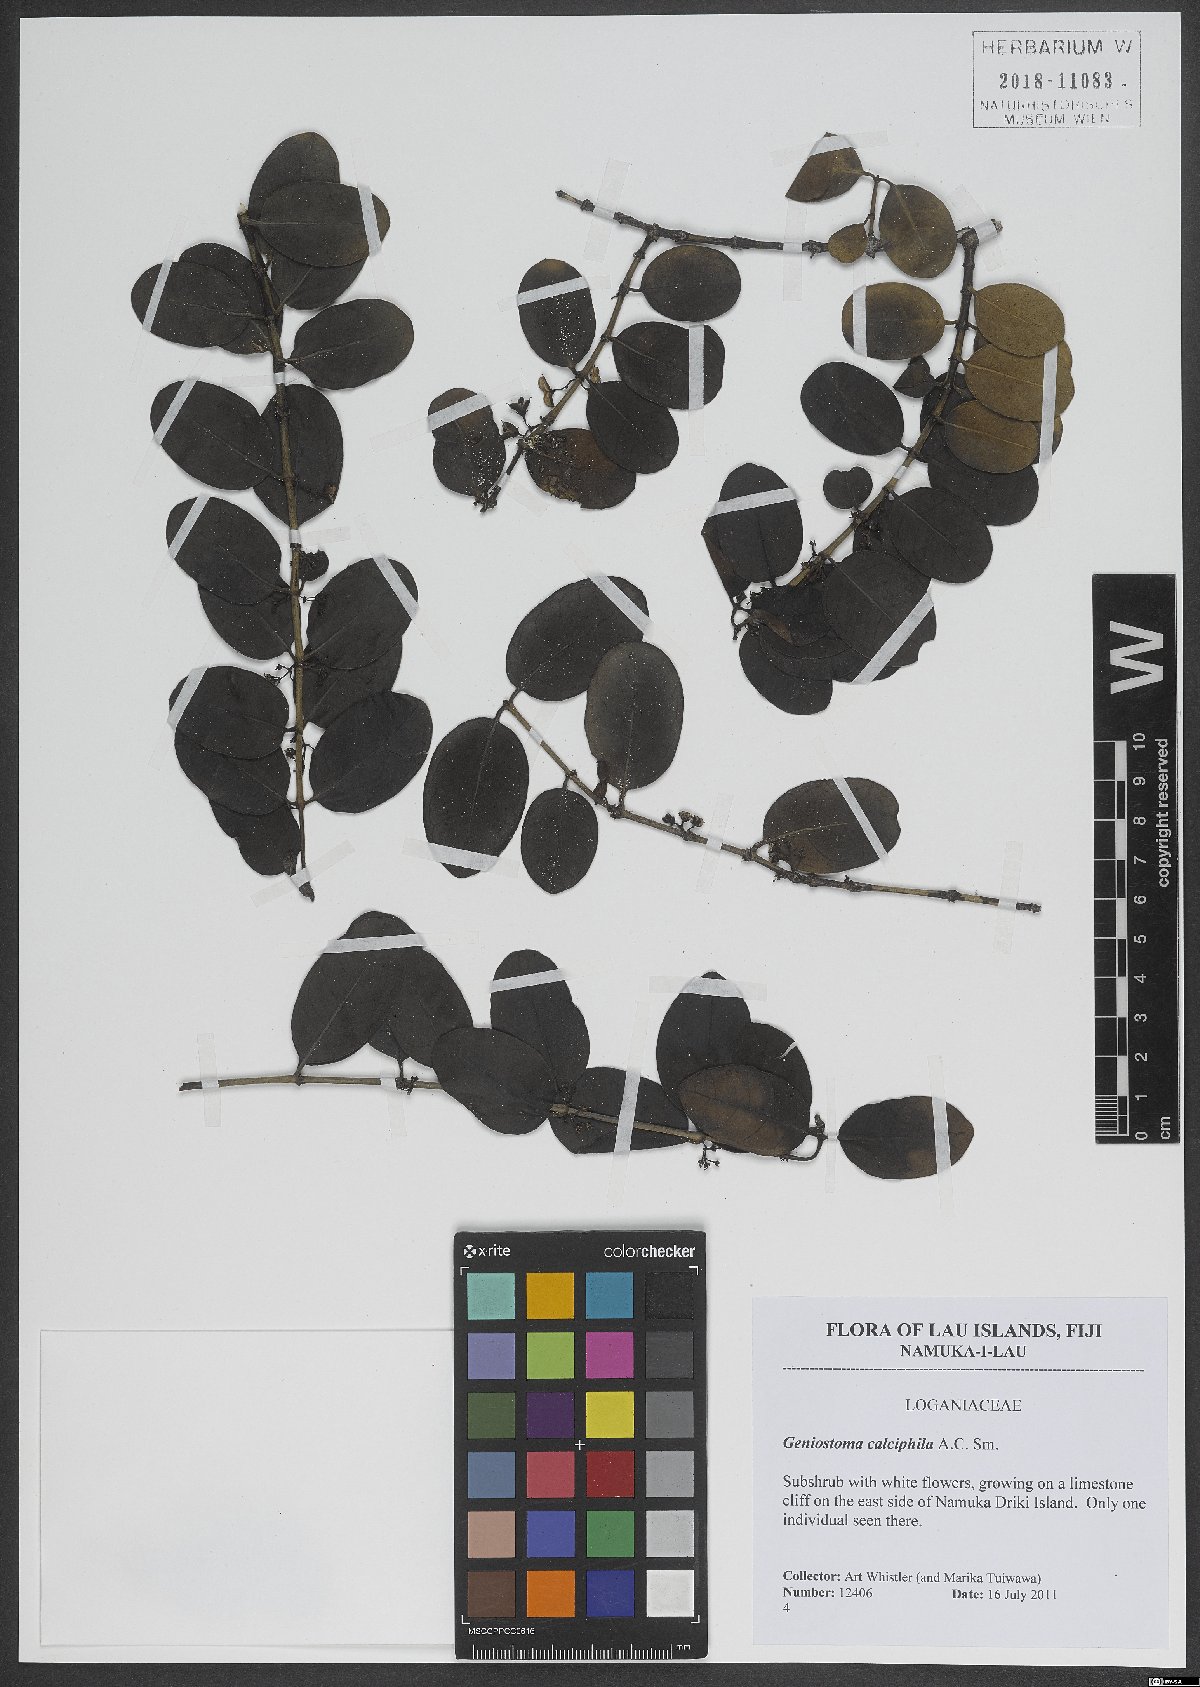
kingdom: Plantae
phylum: Tracheophyta
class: Magnoliopsida
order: Gentianales
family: Loganiaceae
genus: Geniostoma
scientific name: Geniostoma calcicola
